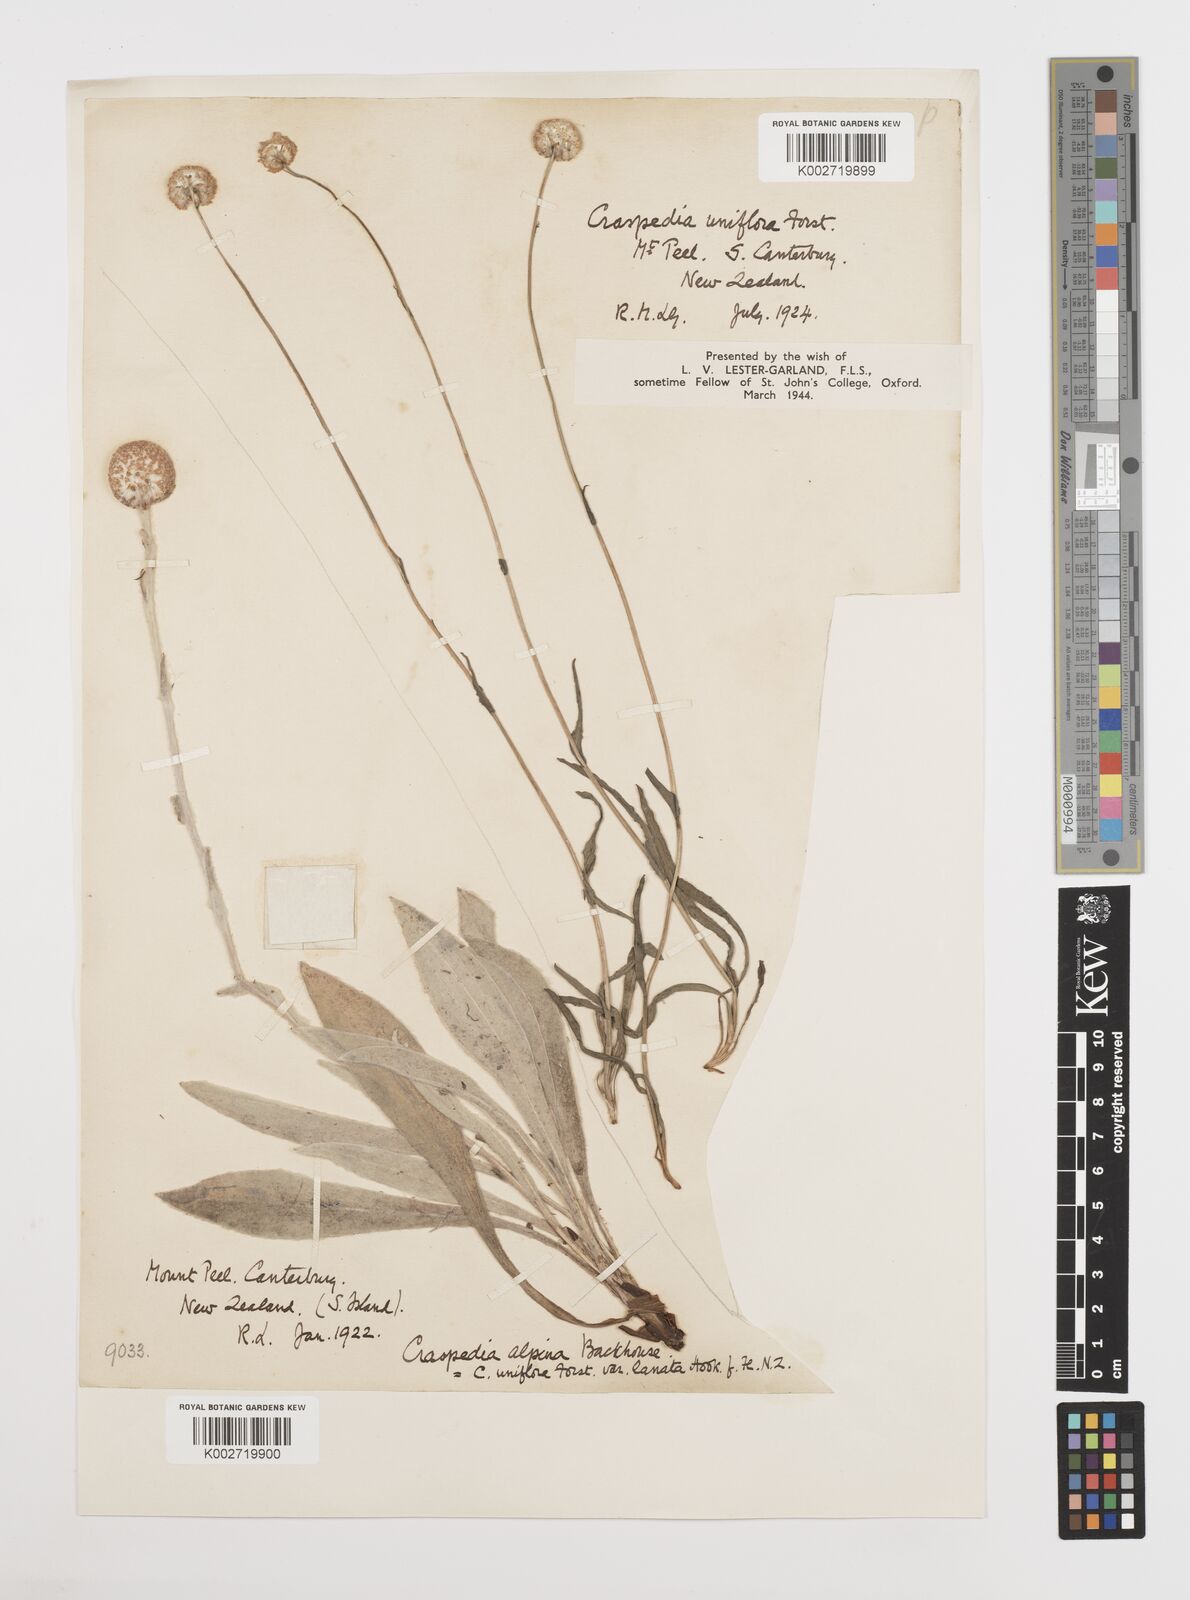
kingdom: Plantae
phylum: Tracheophyta
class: Magnoliopsida
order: Asterales
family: Asteraceae
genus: Craspedia
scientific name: Craspedia uniflora
